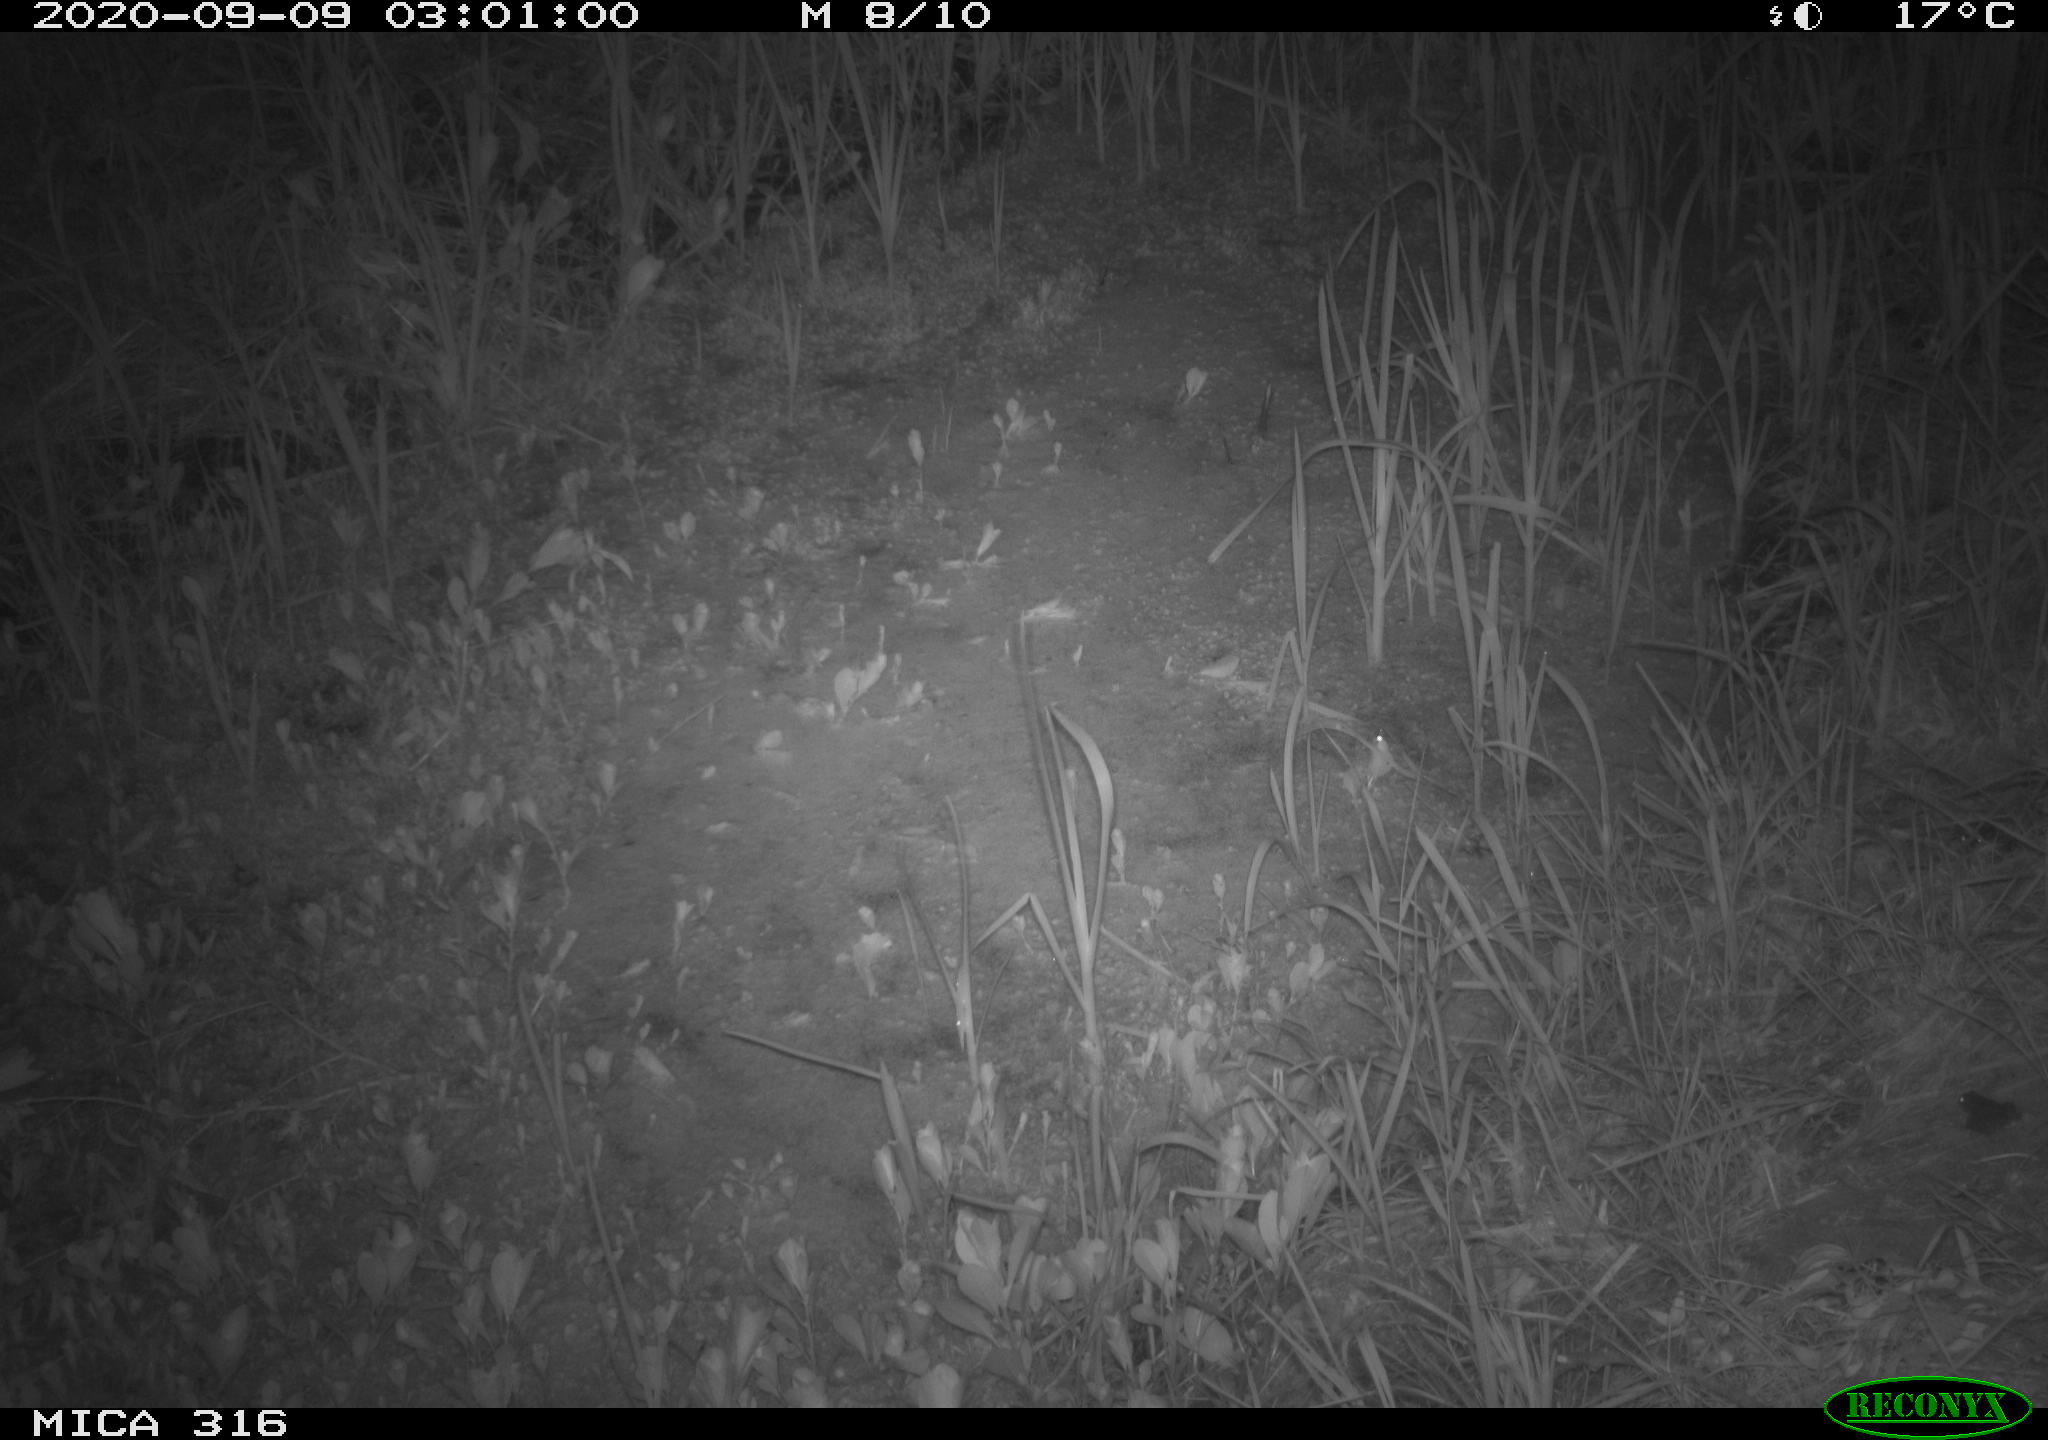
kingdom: Animalia
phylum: Chordata
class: Mammalia
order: Rodentia
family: Muridae
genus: Rattus
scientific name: Rattus norvegicus
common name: Brown rat
